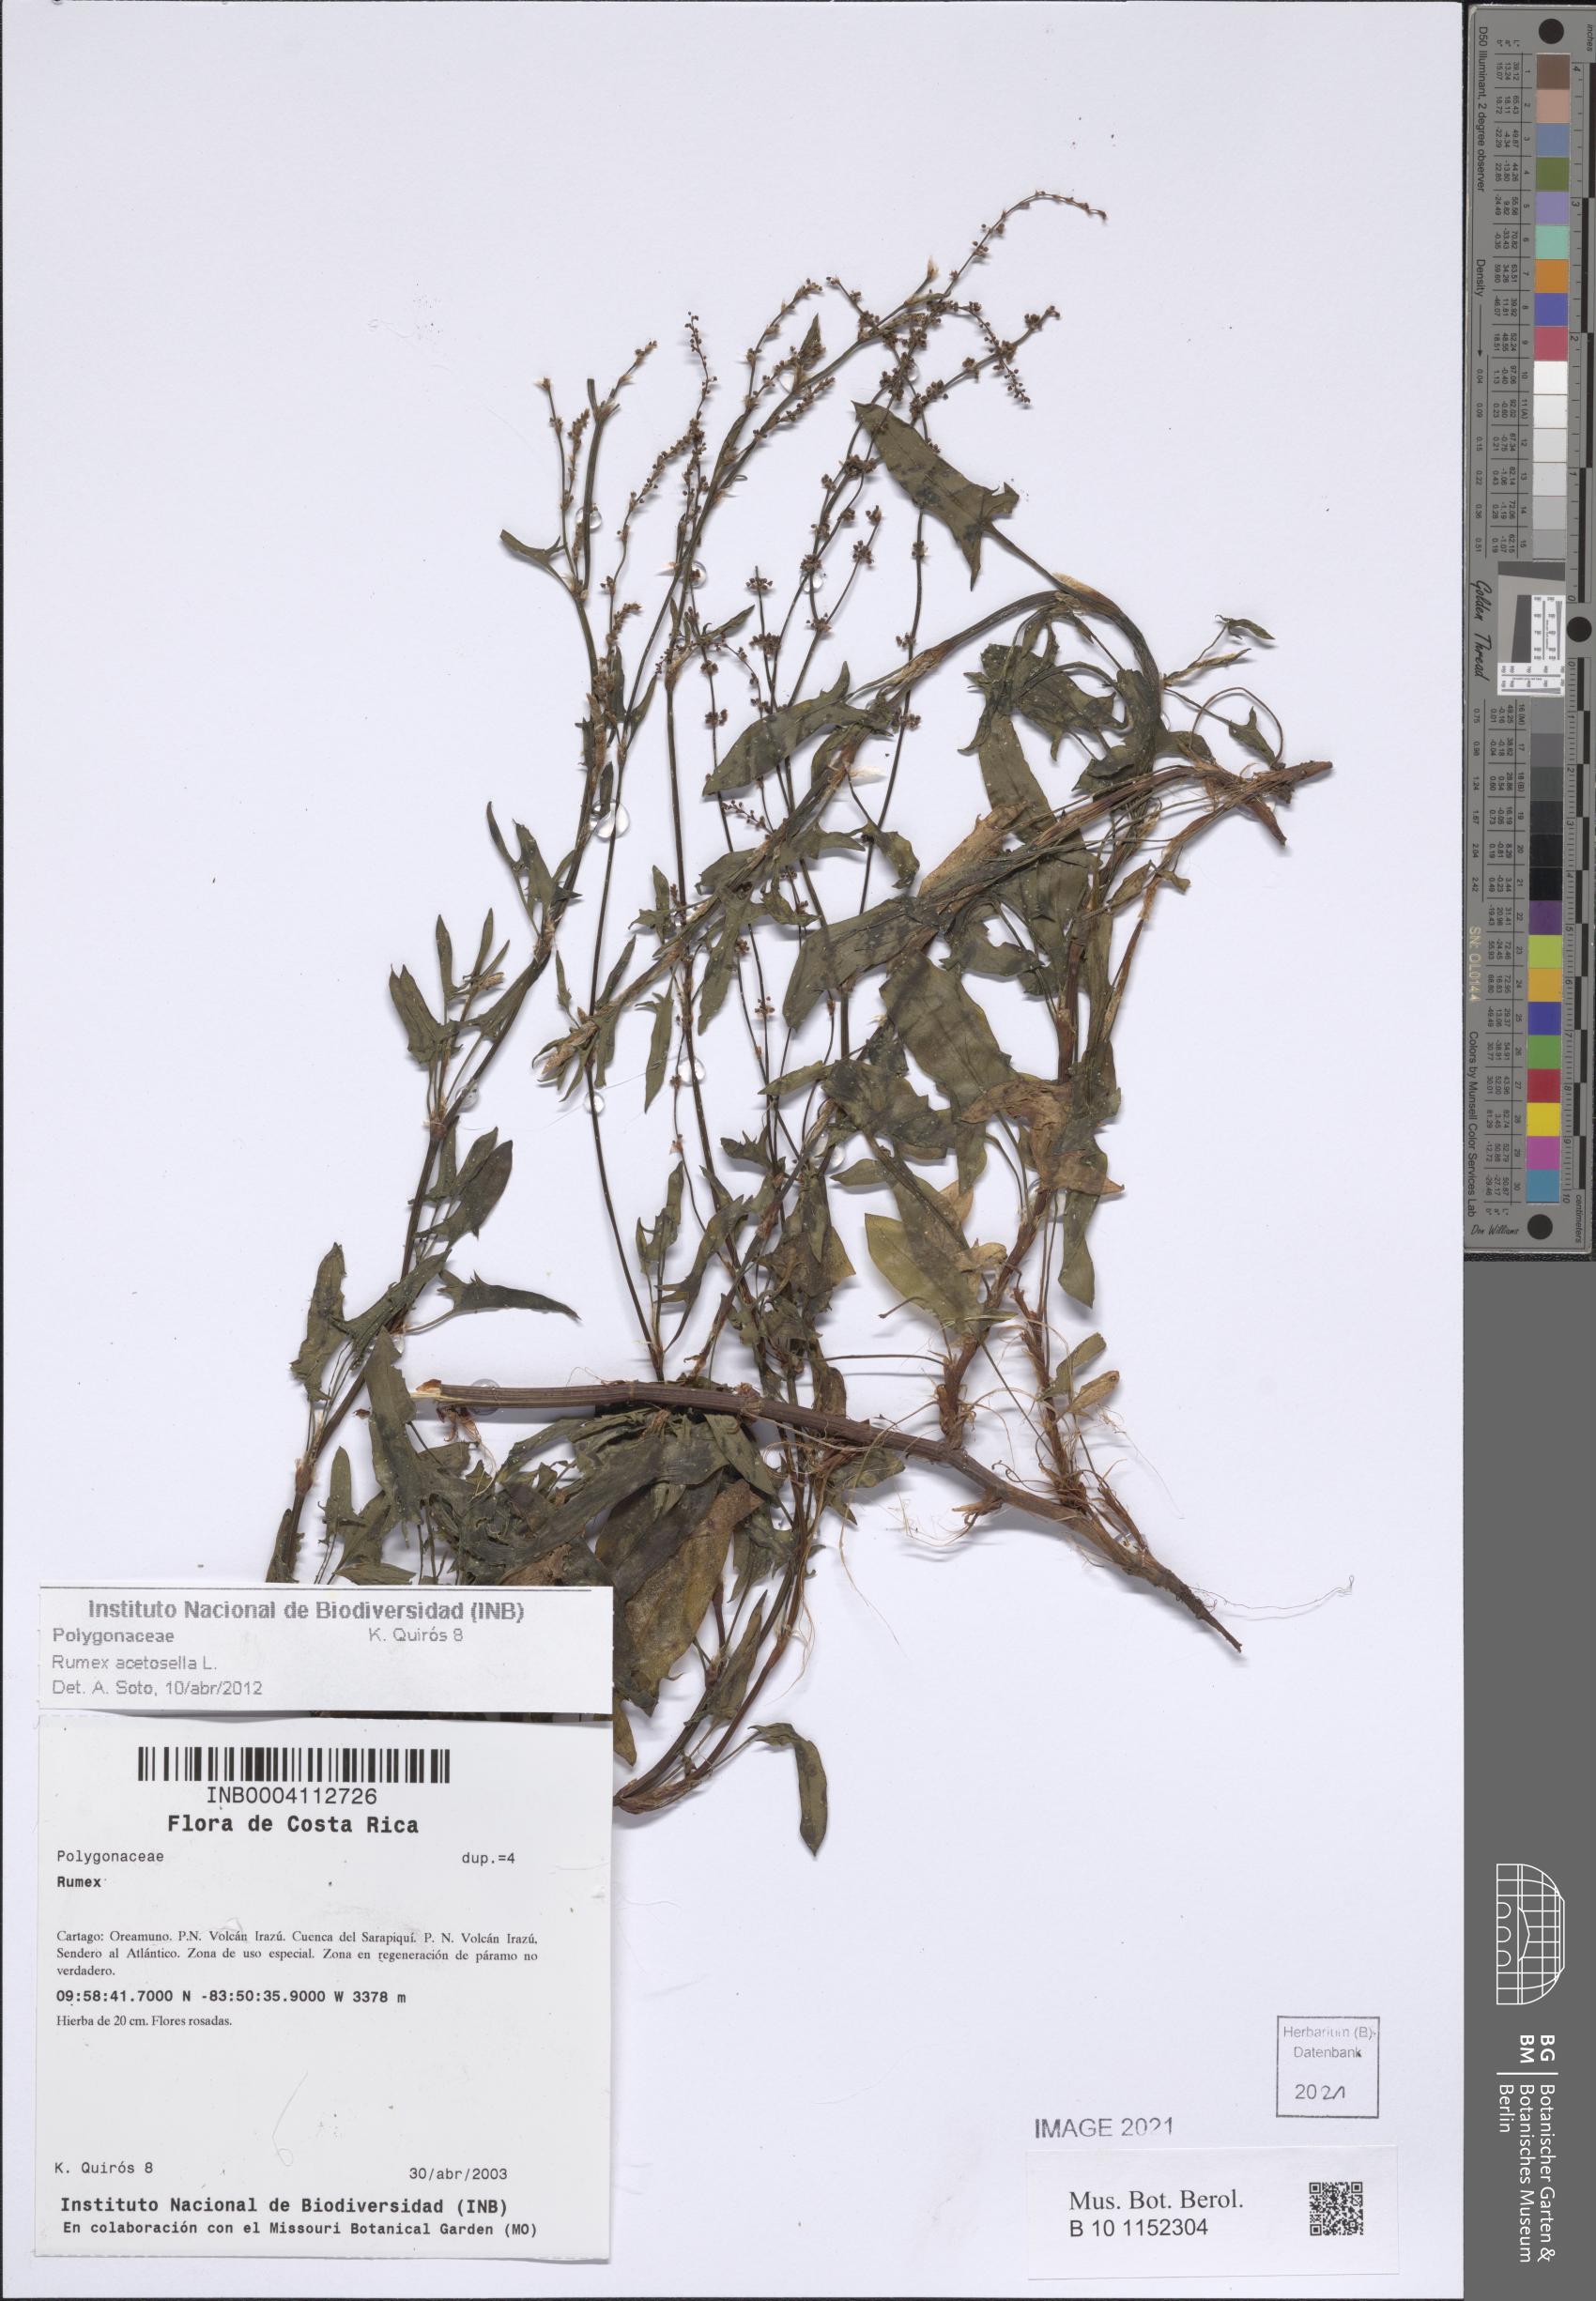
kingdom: Plantae
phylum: Tracheophyta
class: Magnoliopsida
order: Caryophyllales
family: Polygonaceae
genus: Rumex
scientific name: Rumex acetosella
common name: Common sheep sorrel
